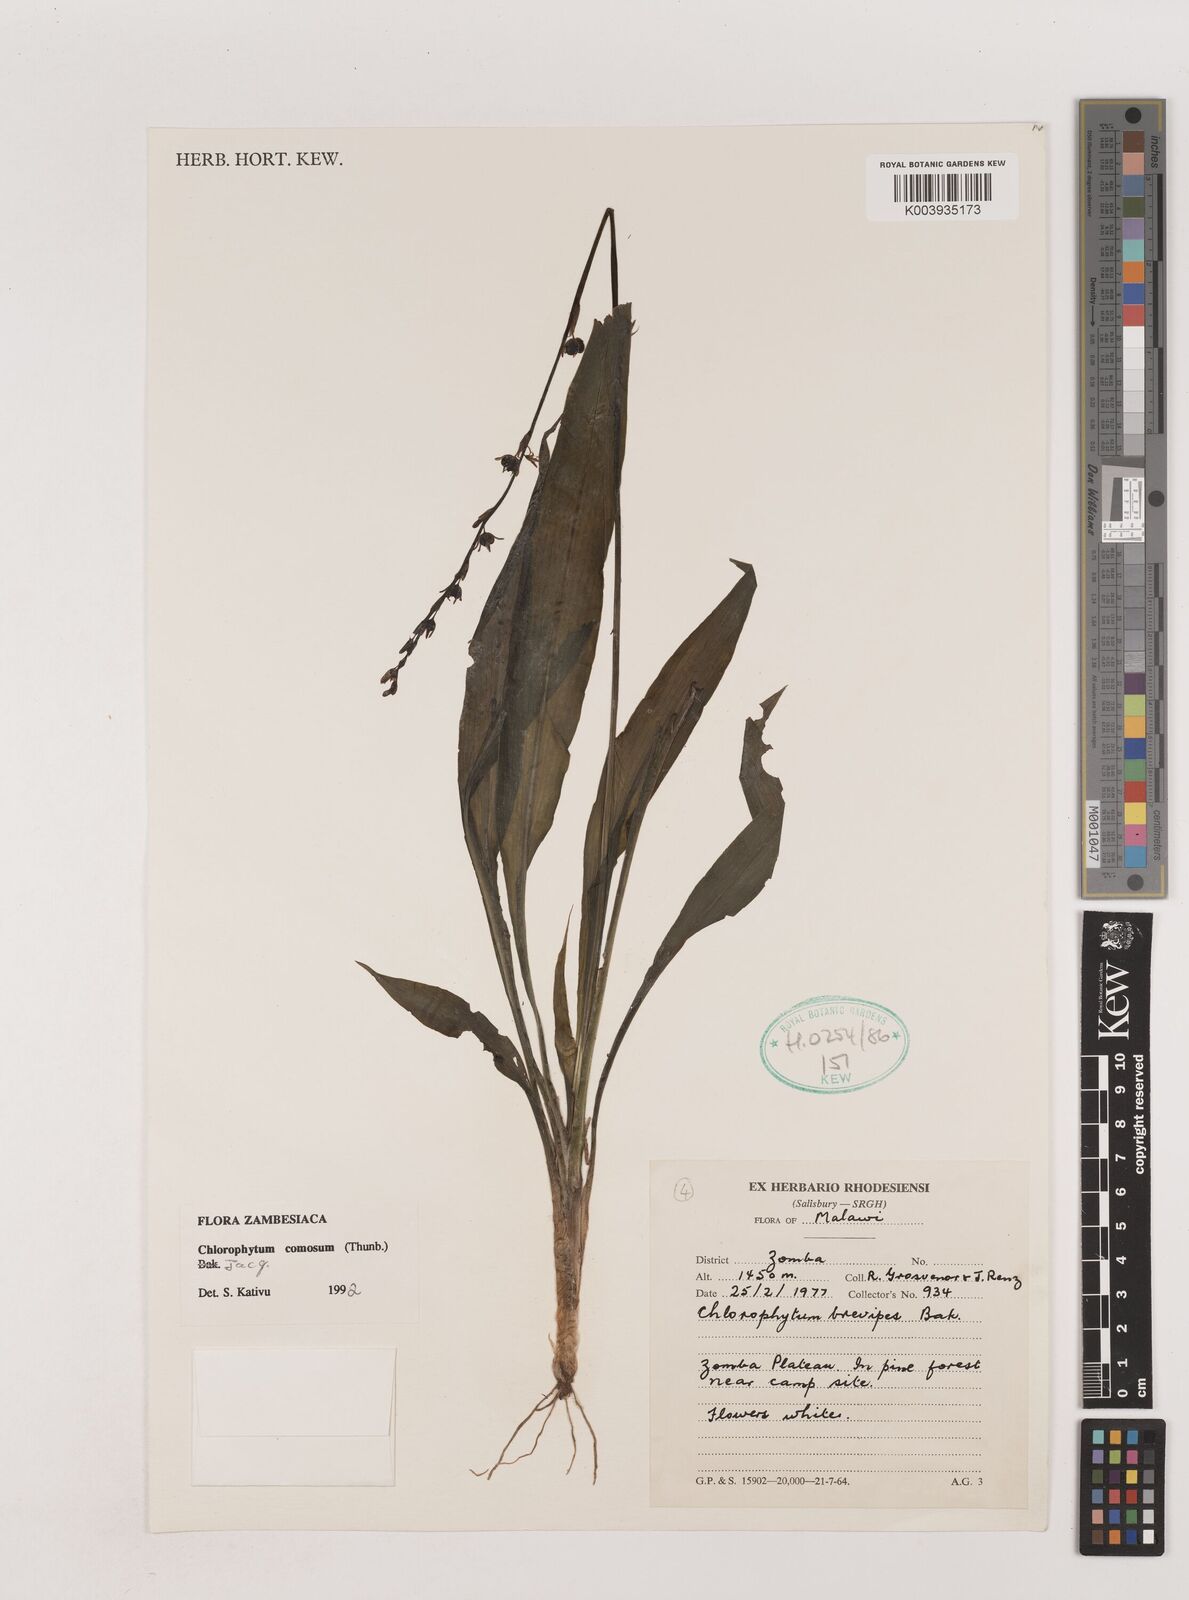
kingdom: Plantae
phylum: Tracheophyta
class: Liliopsida
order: Asparagales
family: Asparagaceae
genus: Chlorophytum
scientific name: Chlorophytum comosum
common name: Spider plant
